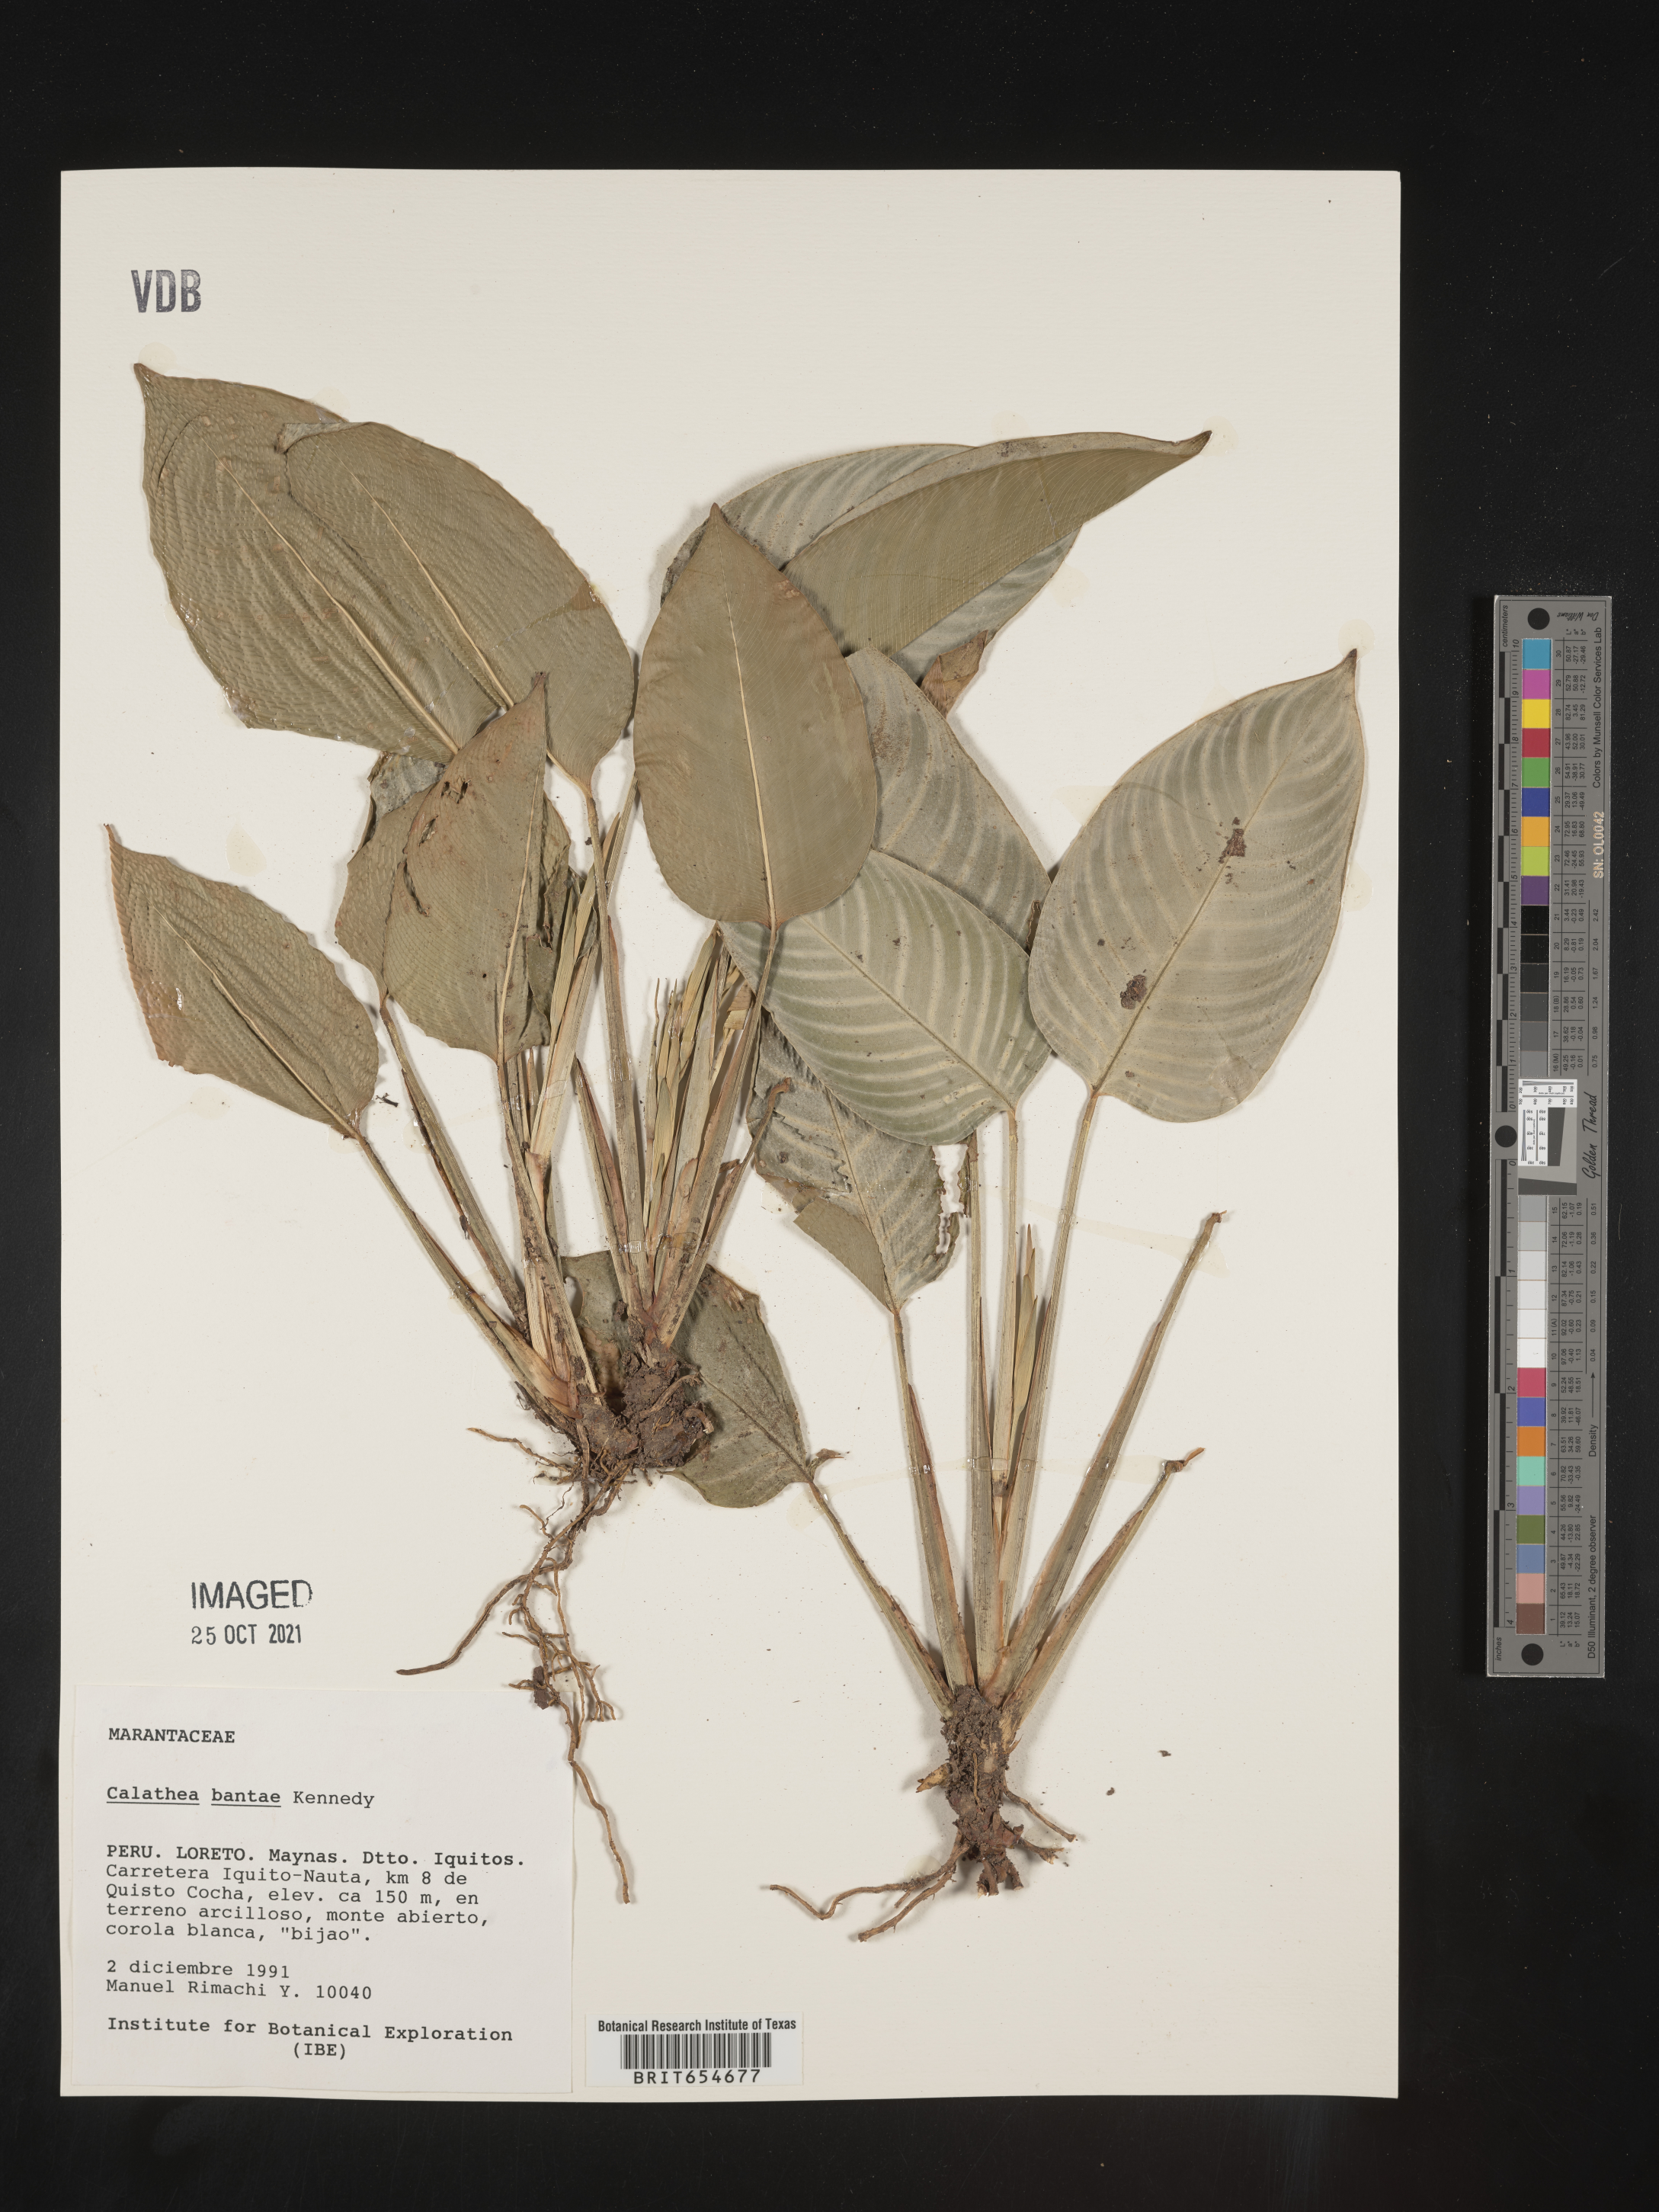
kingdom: Plantae
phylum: Tracheophyta
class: Liliopsida
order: Zingiberales
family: Marantaceae
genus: Calathea
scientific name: Calathea
